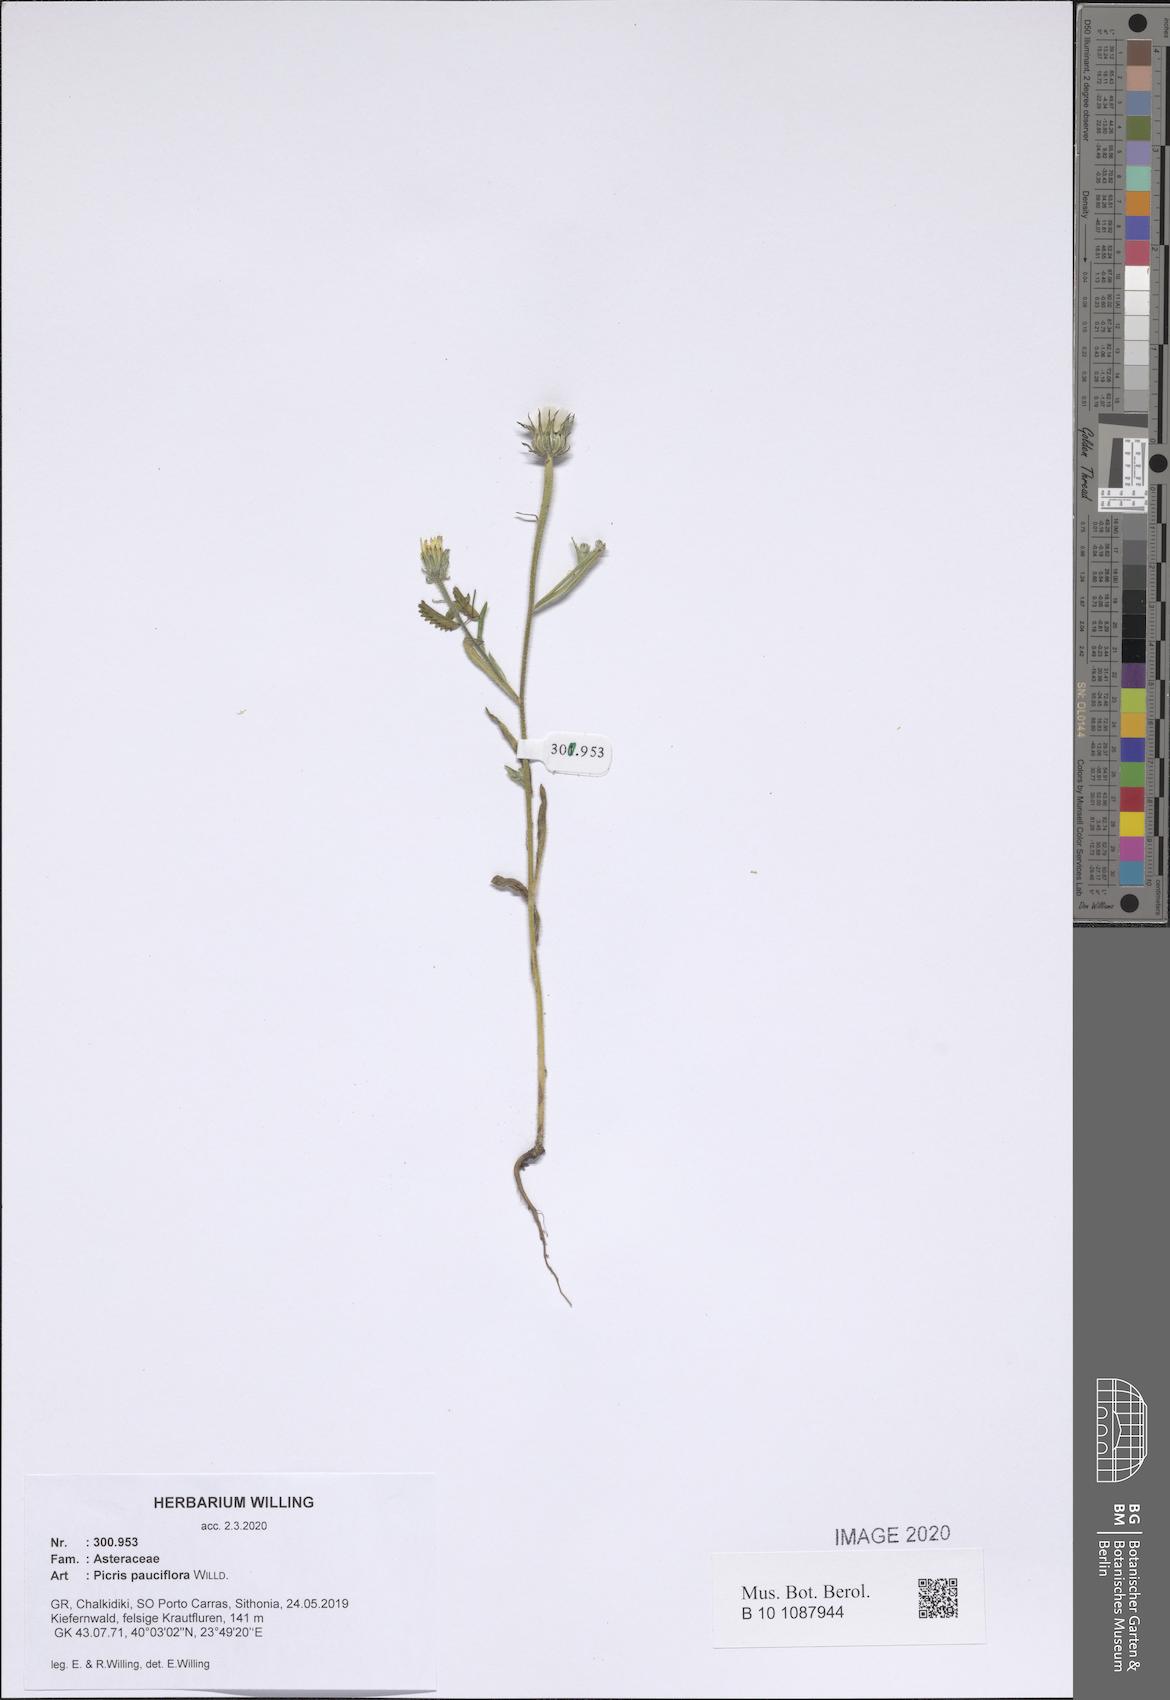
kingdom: Plantae
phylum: Tracheophyta
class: Magnoliopsida
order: Asterales
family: Asteraceae
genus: Picris
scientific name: Picris pauciflora
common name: Smallflower oxtongue
